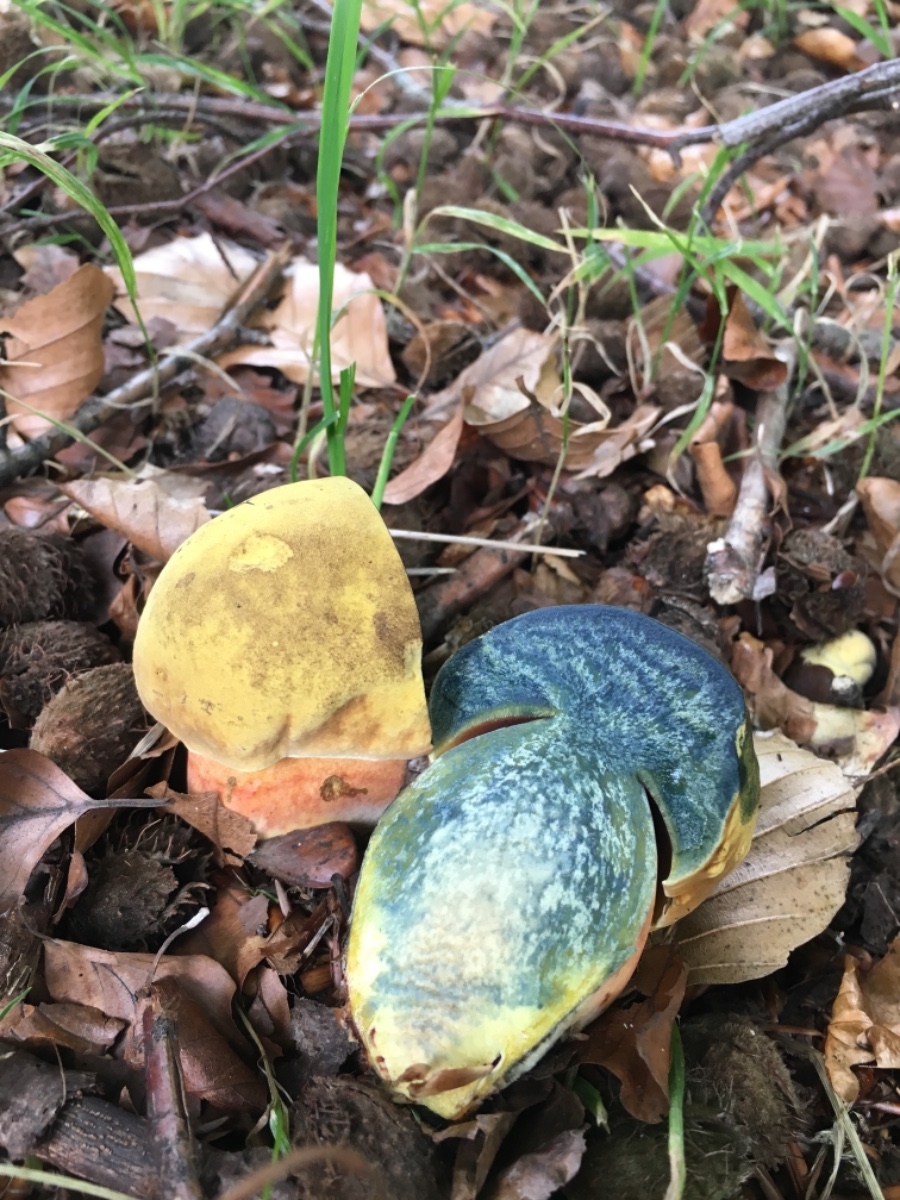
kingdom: Fungi
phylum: Basidiomycota
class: Agaricomycetes
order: Boletales
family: Boletaceae
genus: Neoboletus
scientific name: Neoboletus erythropus
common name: punktstokket indigorørhat
